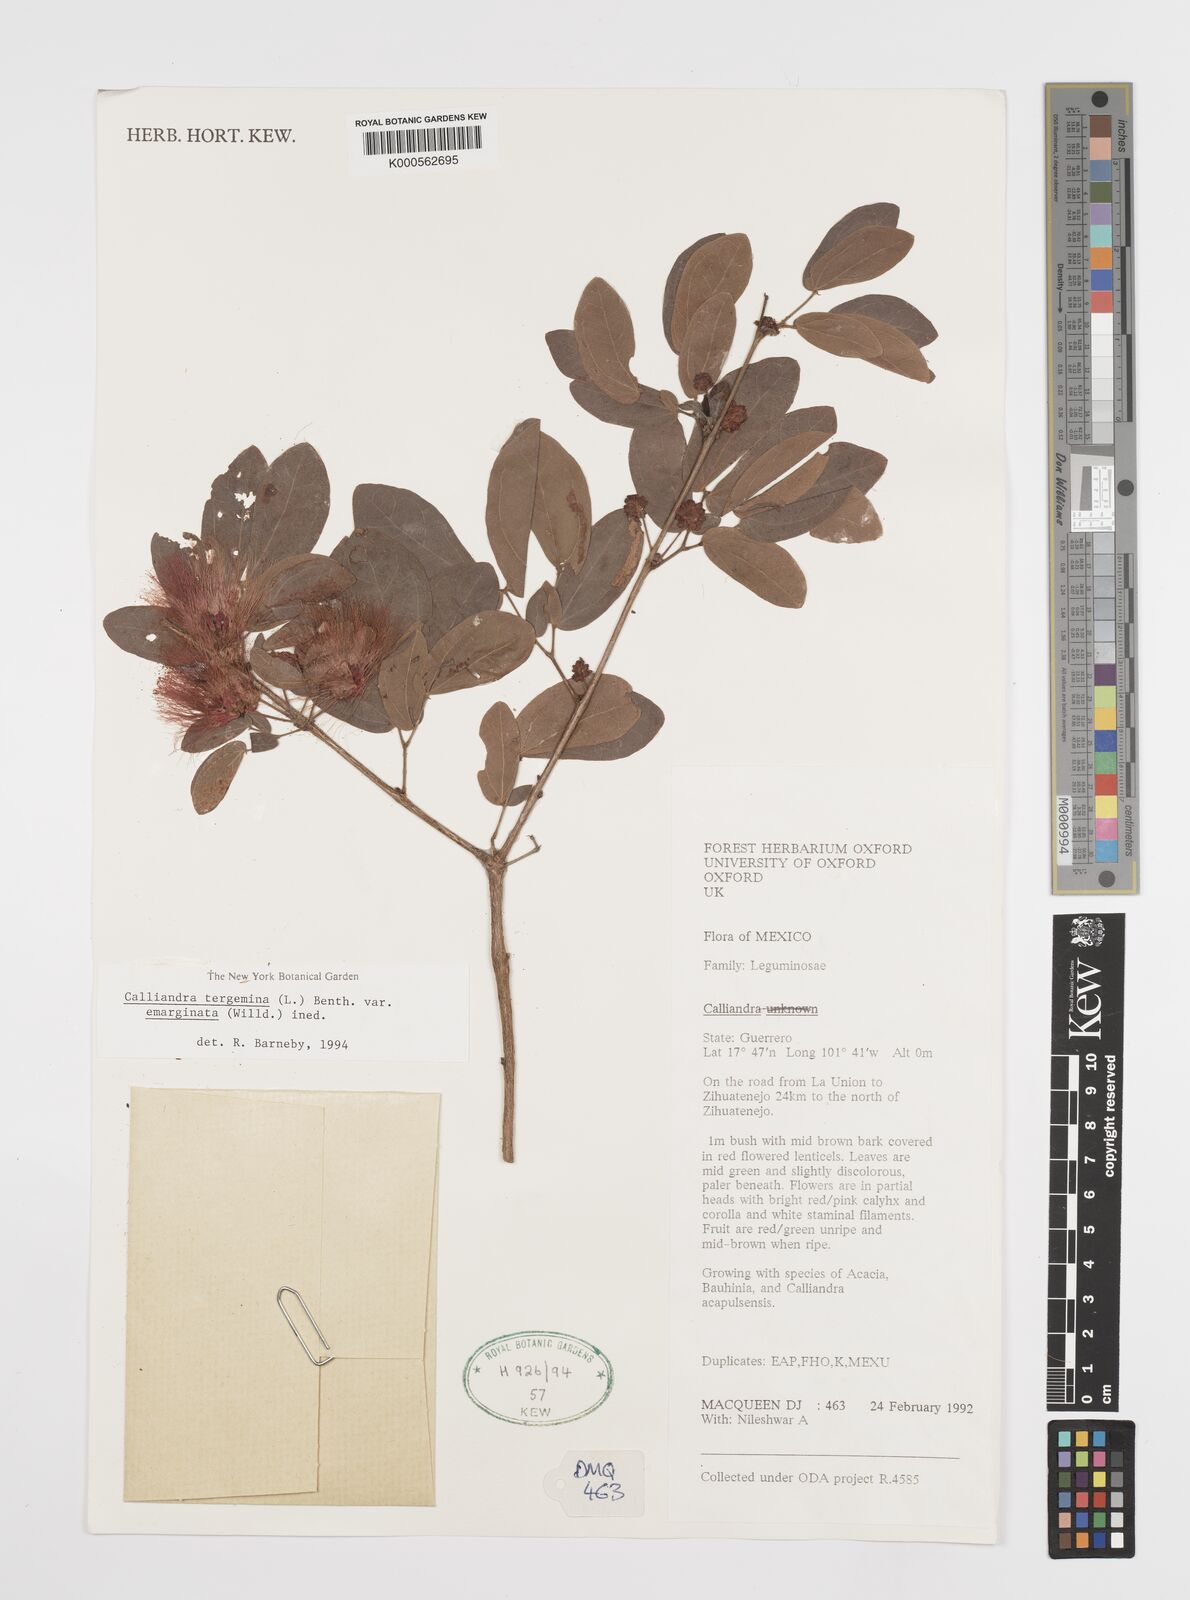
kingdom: Plantae
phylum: Tracheophyta
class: Magnoliopsida
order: Fabales
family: Fabaceae
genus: Calliandra
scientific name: Calliandra tergemina
